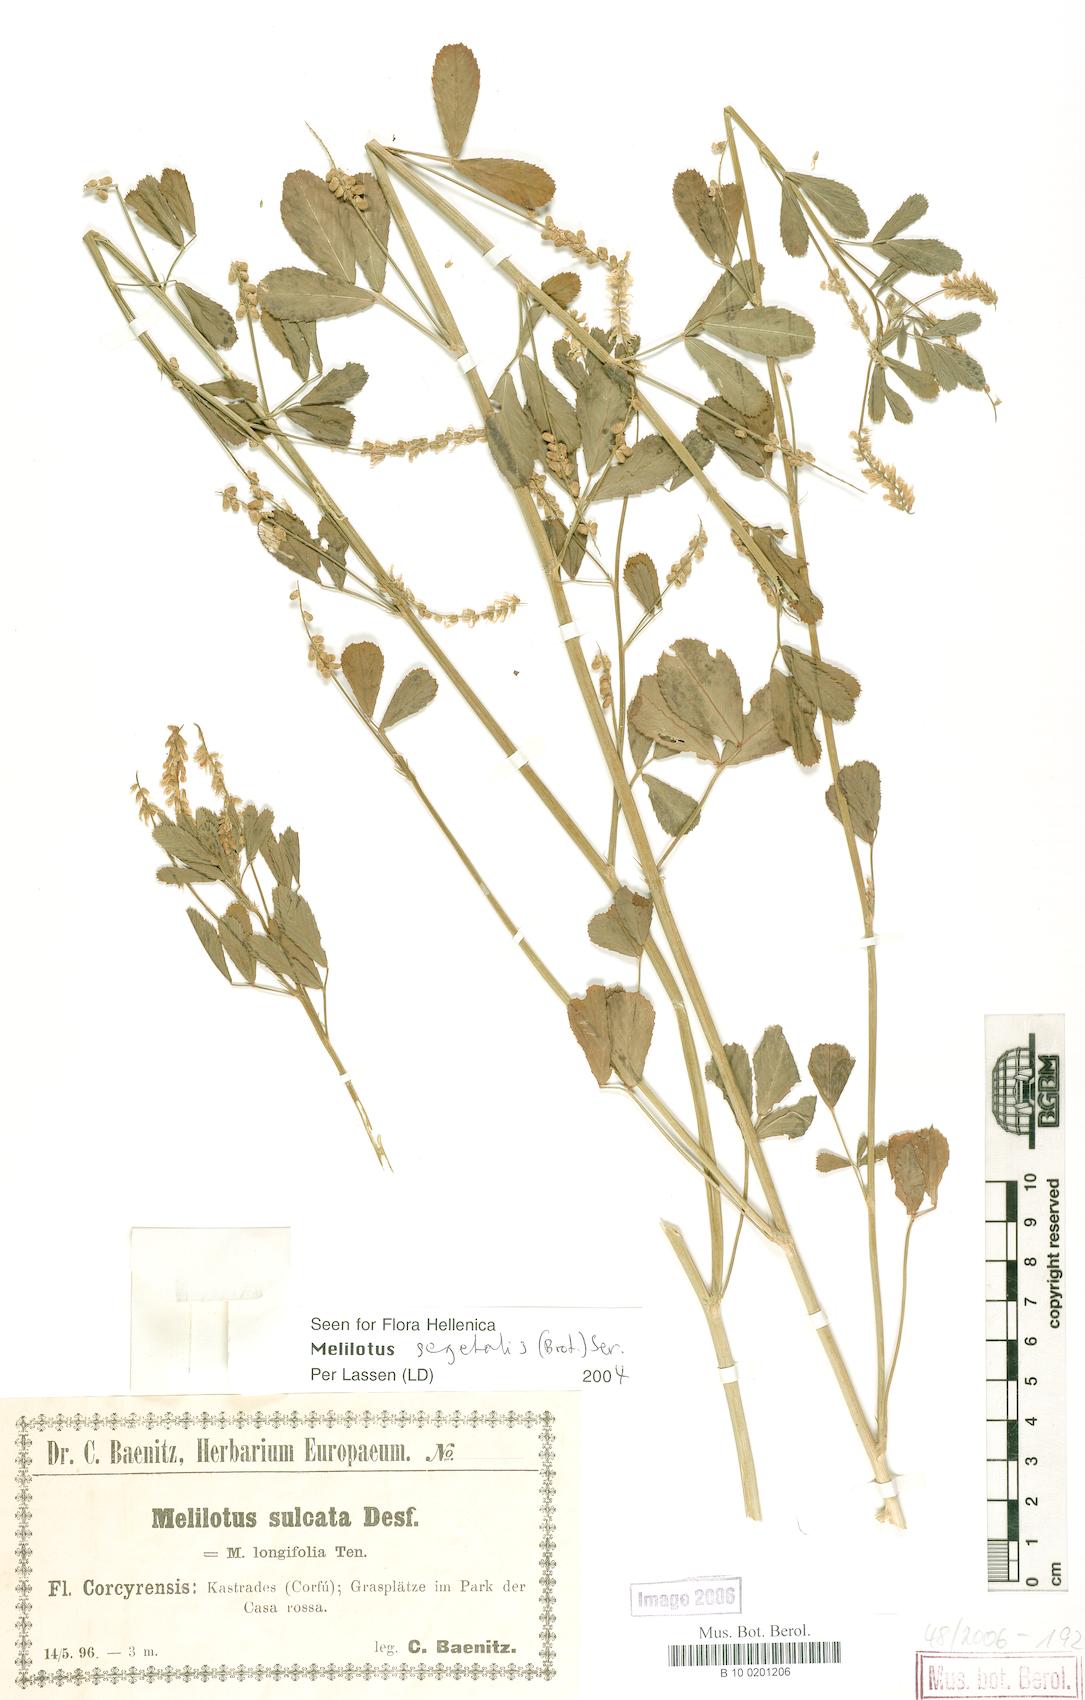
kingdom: Plantae
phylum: Tracheophyta
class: Magnoliopsida
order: Fabales
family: Fabaceae
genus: Melilotus
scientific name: Melilotus segetalis
